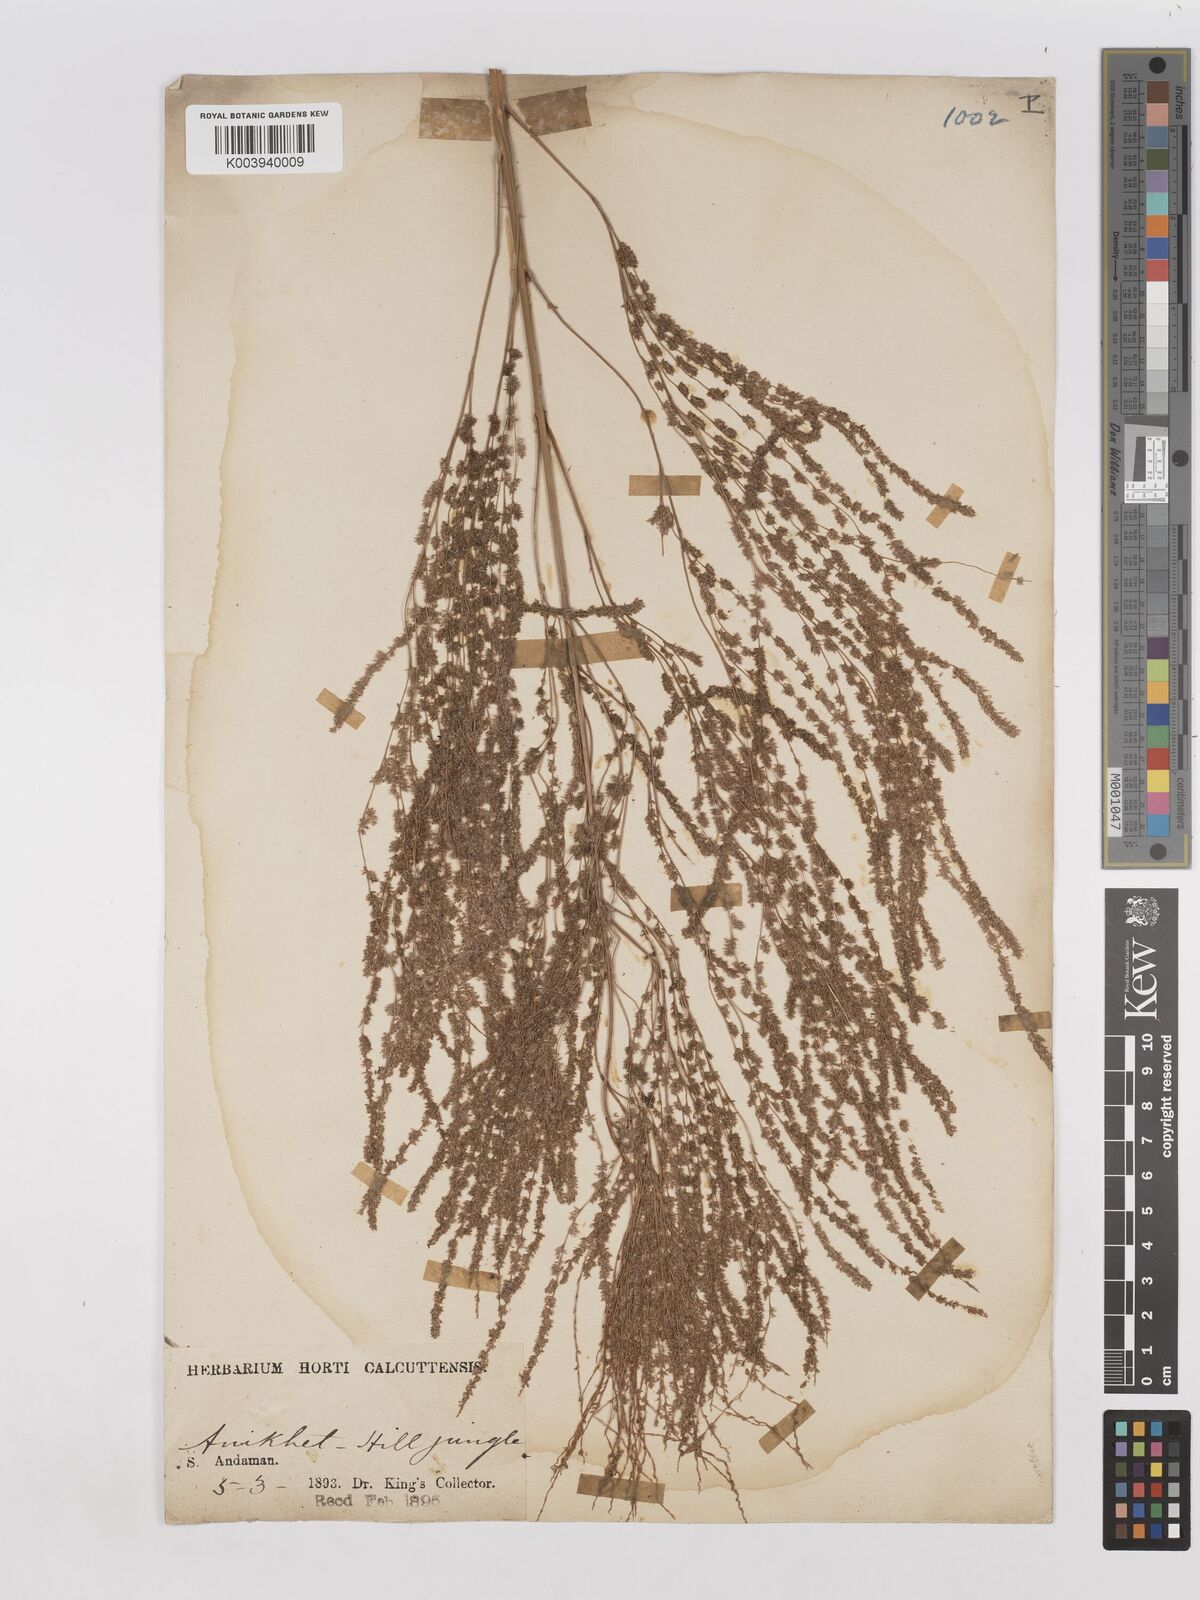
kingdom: Plantae
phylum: Tracheophyta
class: Liliopsida
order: Poales
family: Poaceae
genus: Thysanolaena
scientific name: Thysanolaena latifolia
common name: Tiger grass
